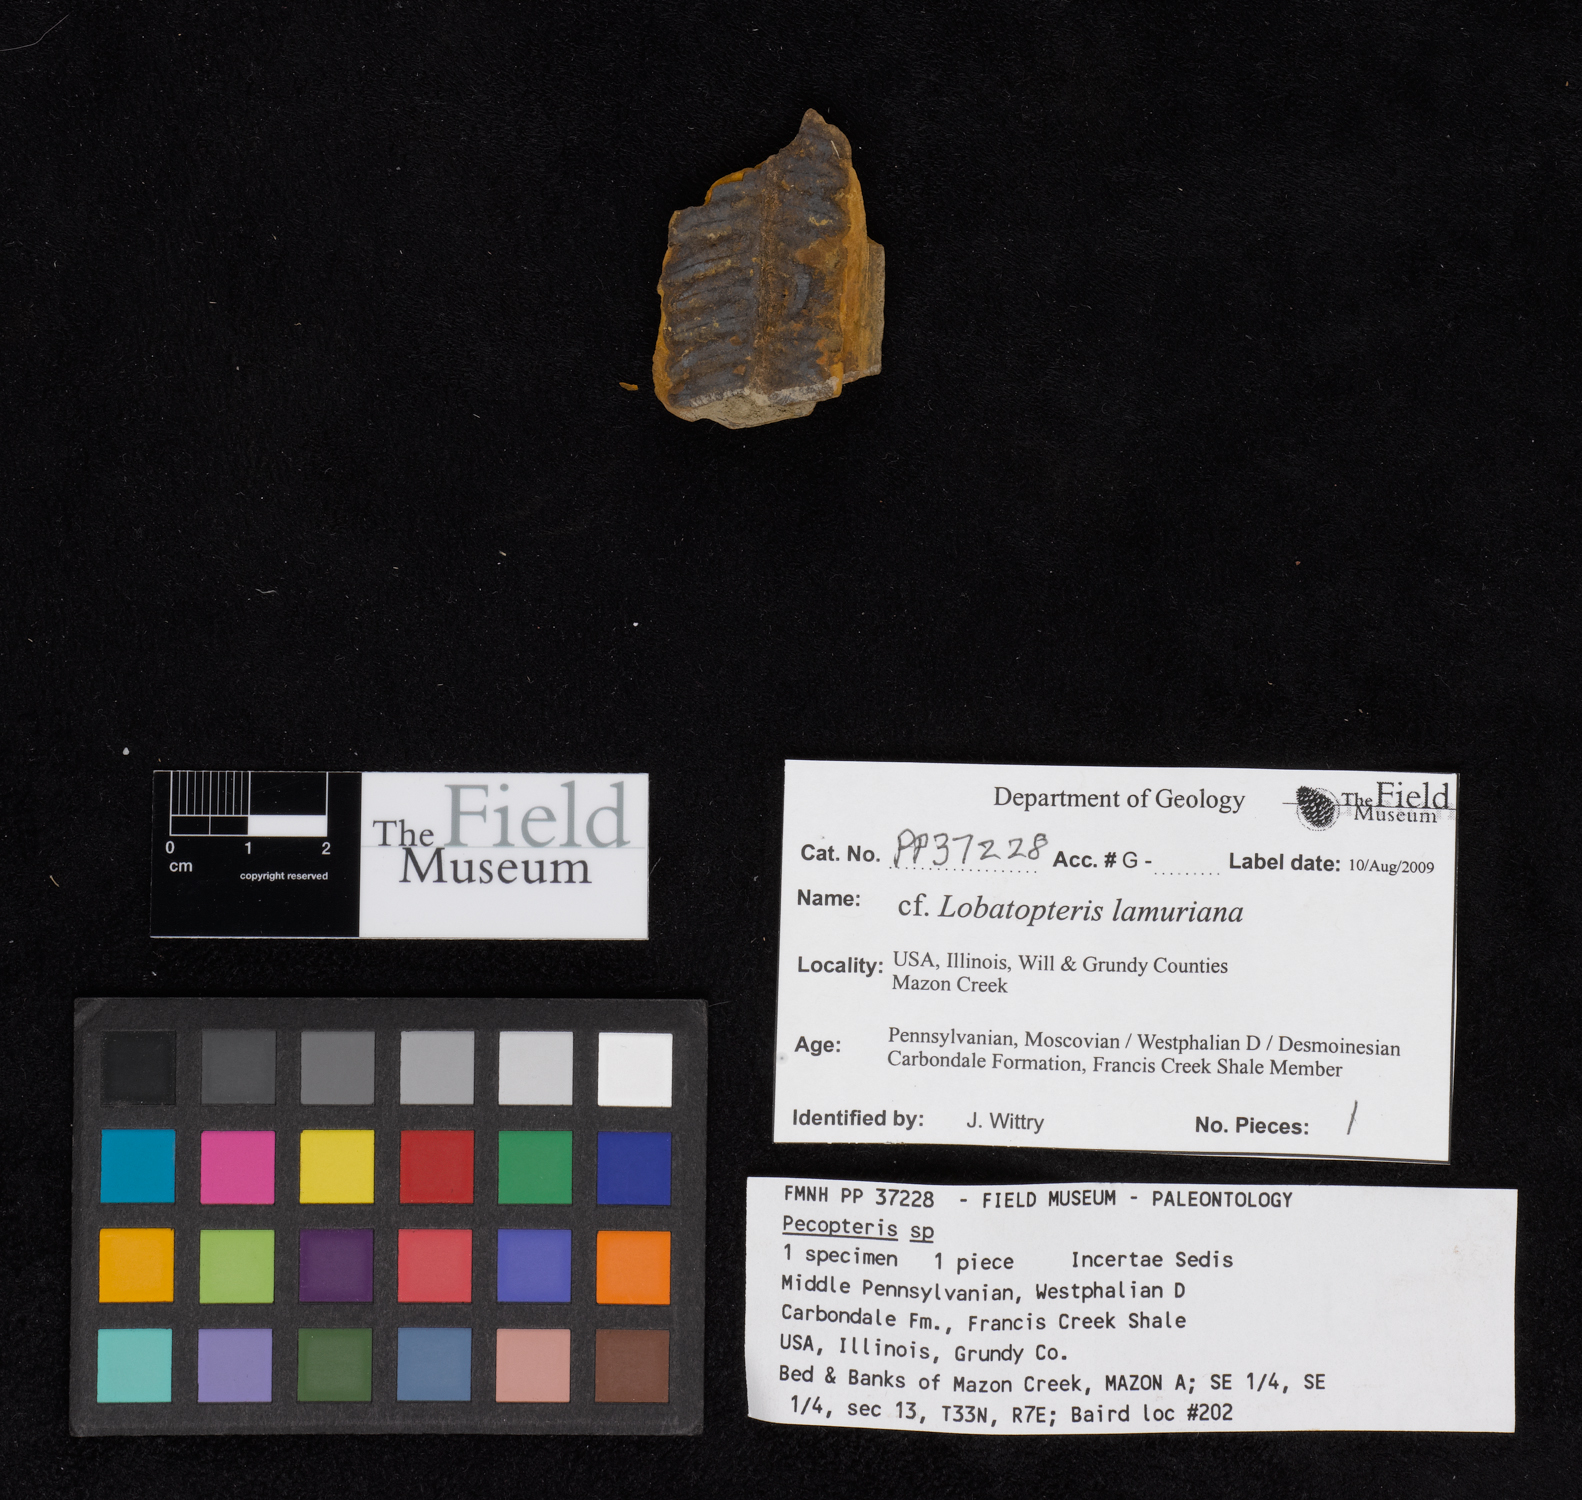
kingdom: Plantae
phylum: Tracheophyta
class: Polypodiopsida
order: Marattiales
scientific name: Marattiales
